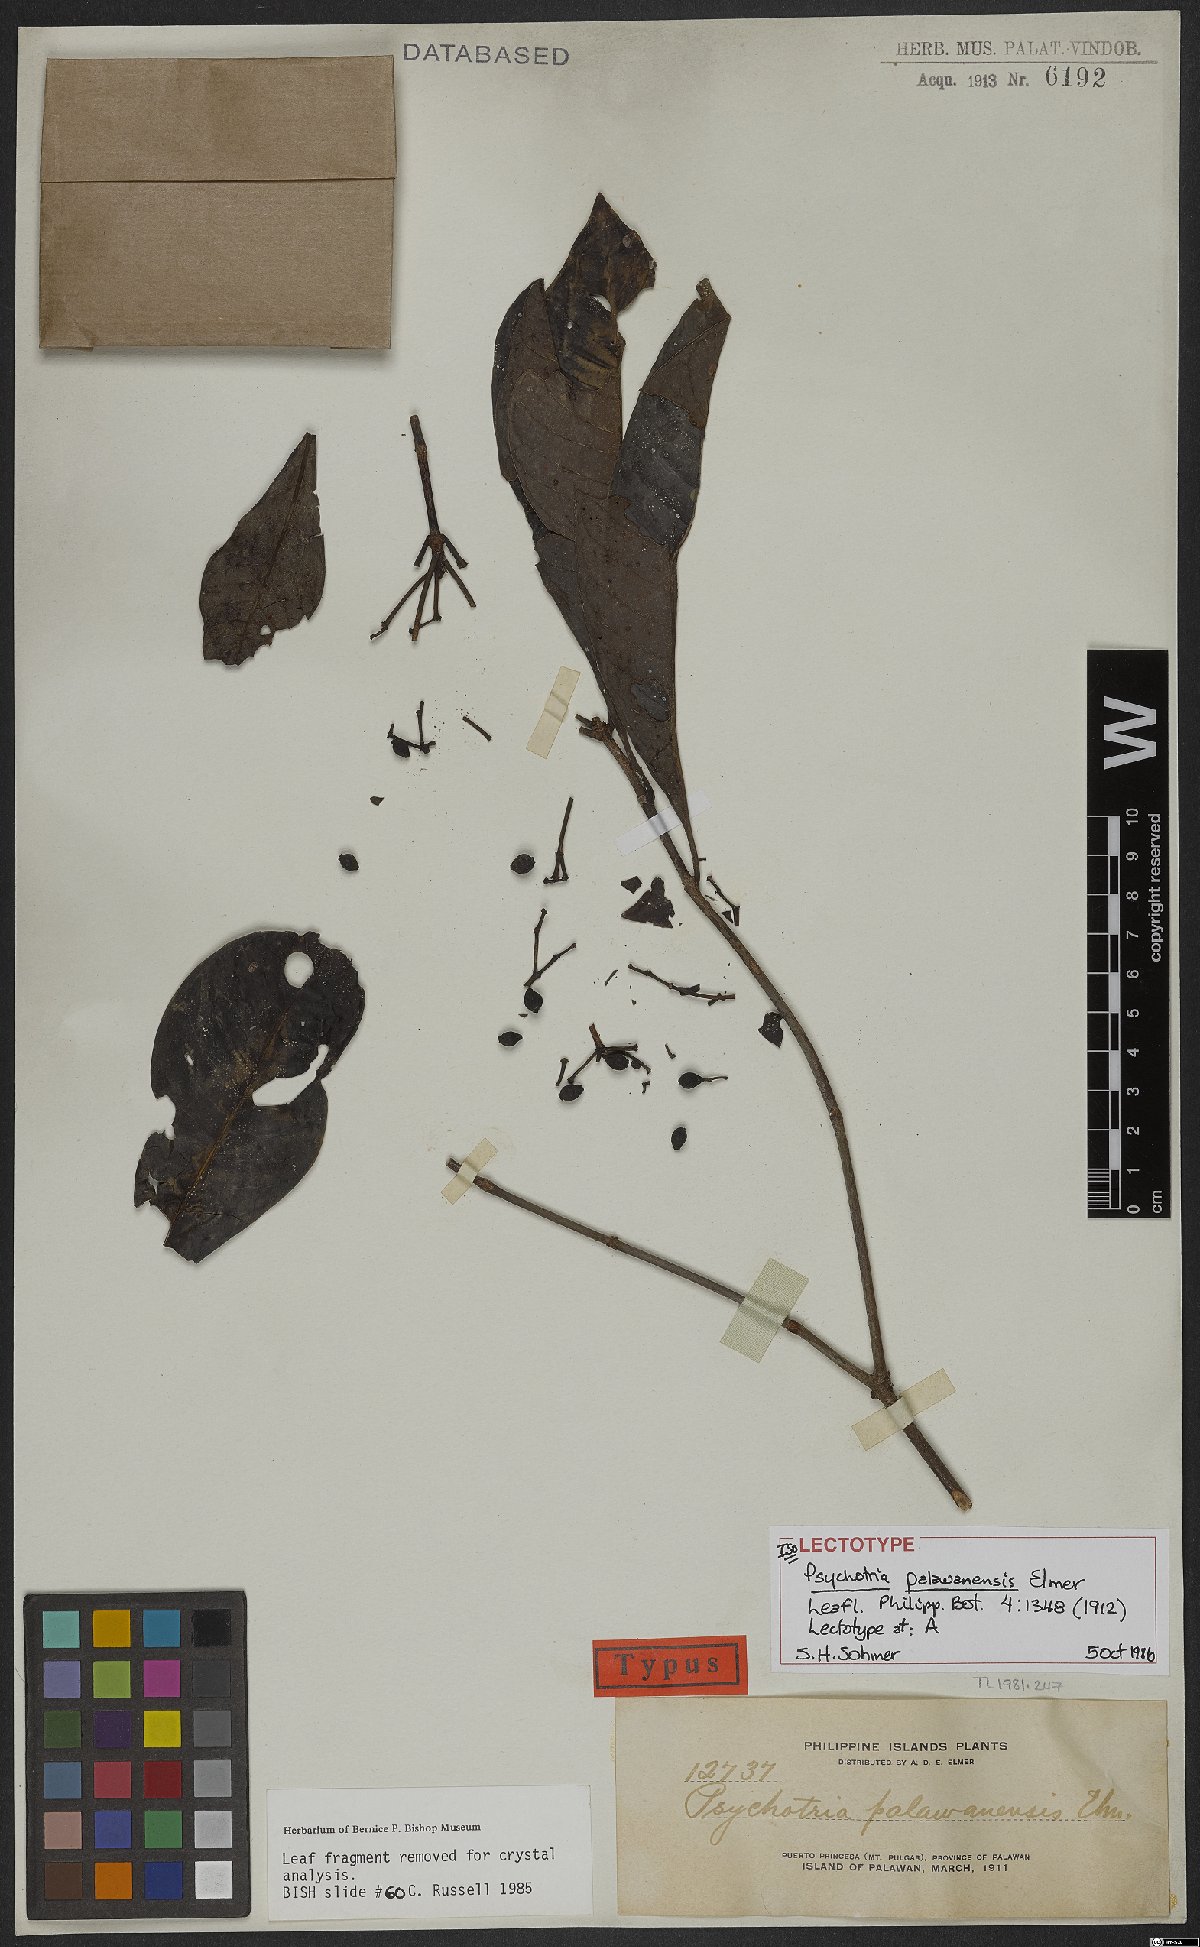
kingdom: Plantae
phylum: Tracheophyta
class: Magnoliopsida
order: Gentianales
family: Rubiaceae
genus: Psychotria
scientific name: Psychotria palawanensis
